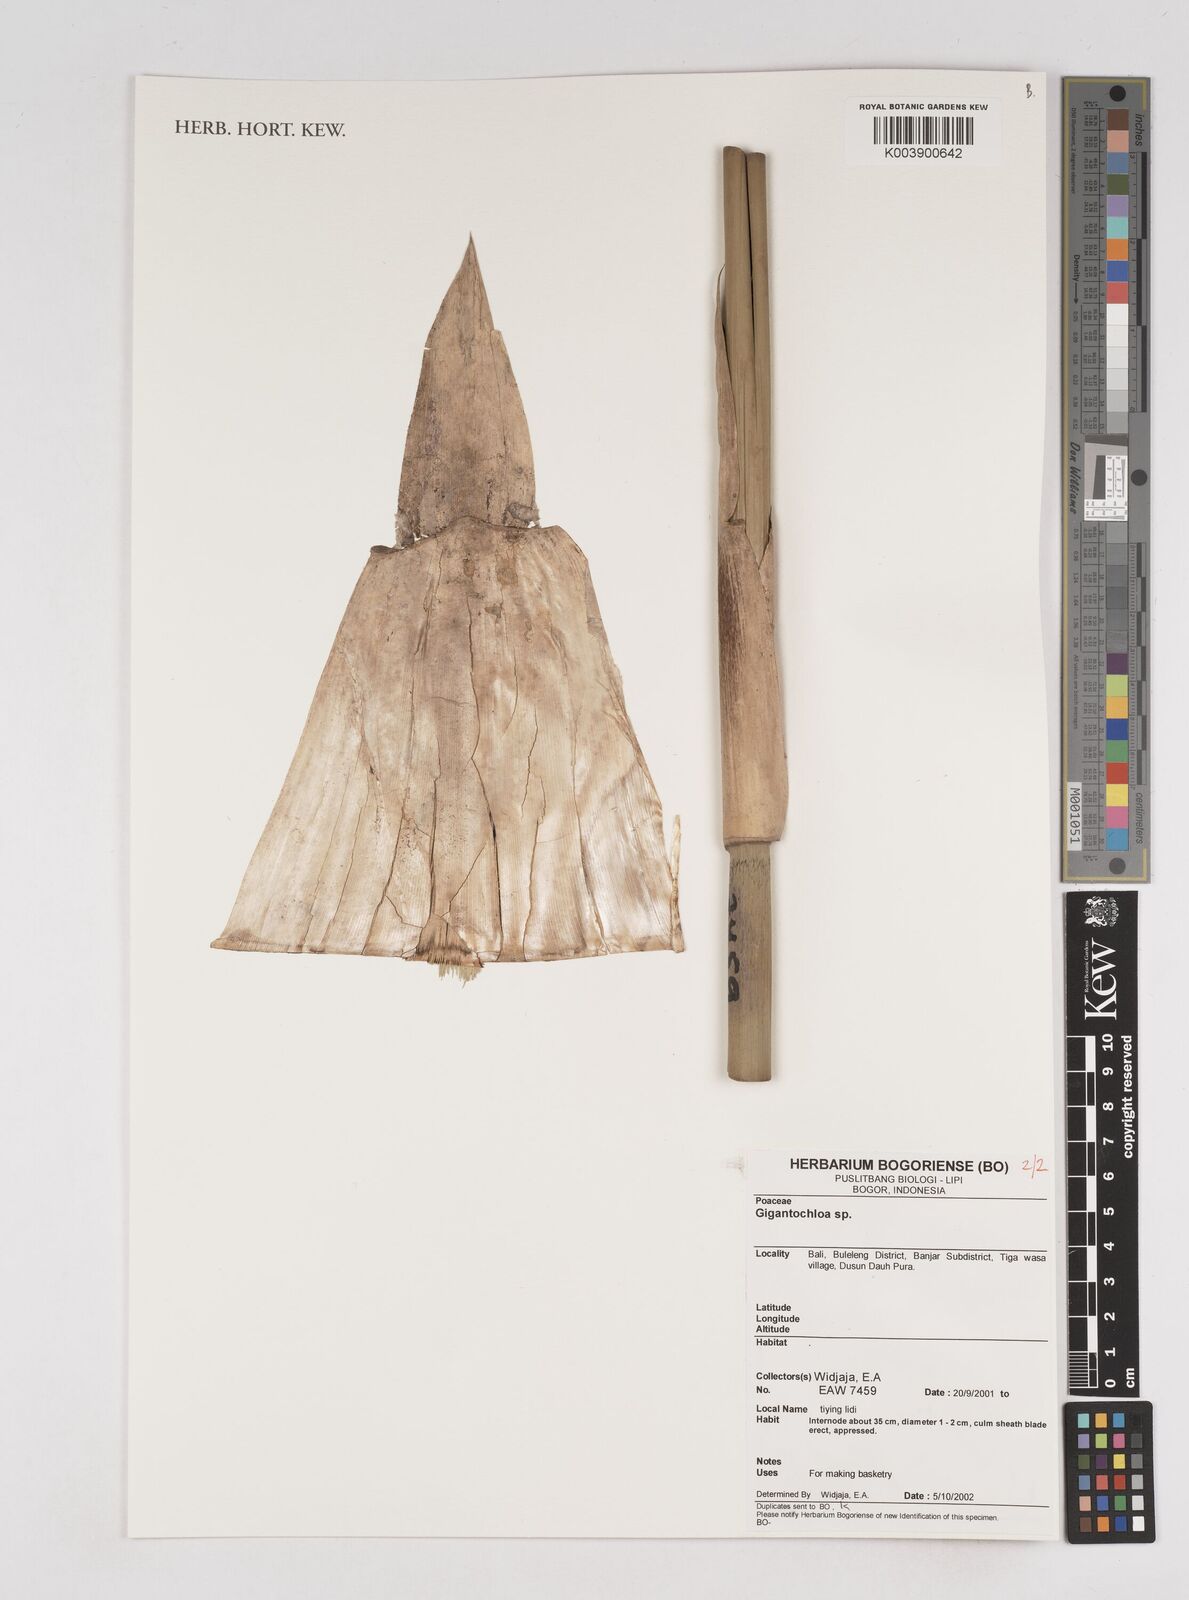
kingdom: Plantae
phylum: Tracheophyta
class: Liliopsida
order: Poales
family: Poaceae
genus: Gigantochloa
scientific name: Gigantochloa
